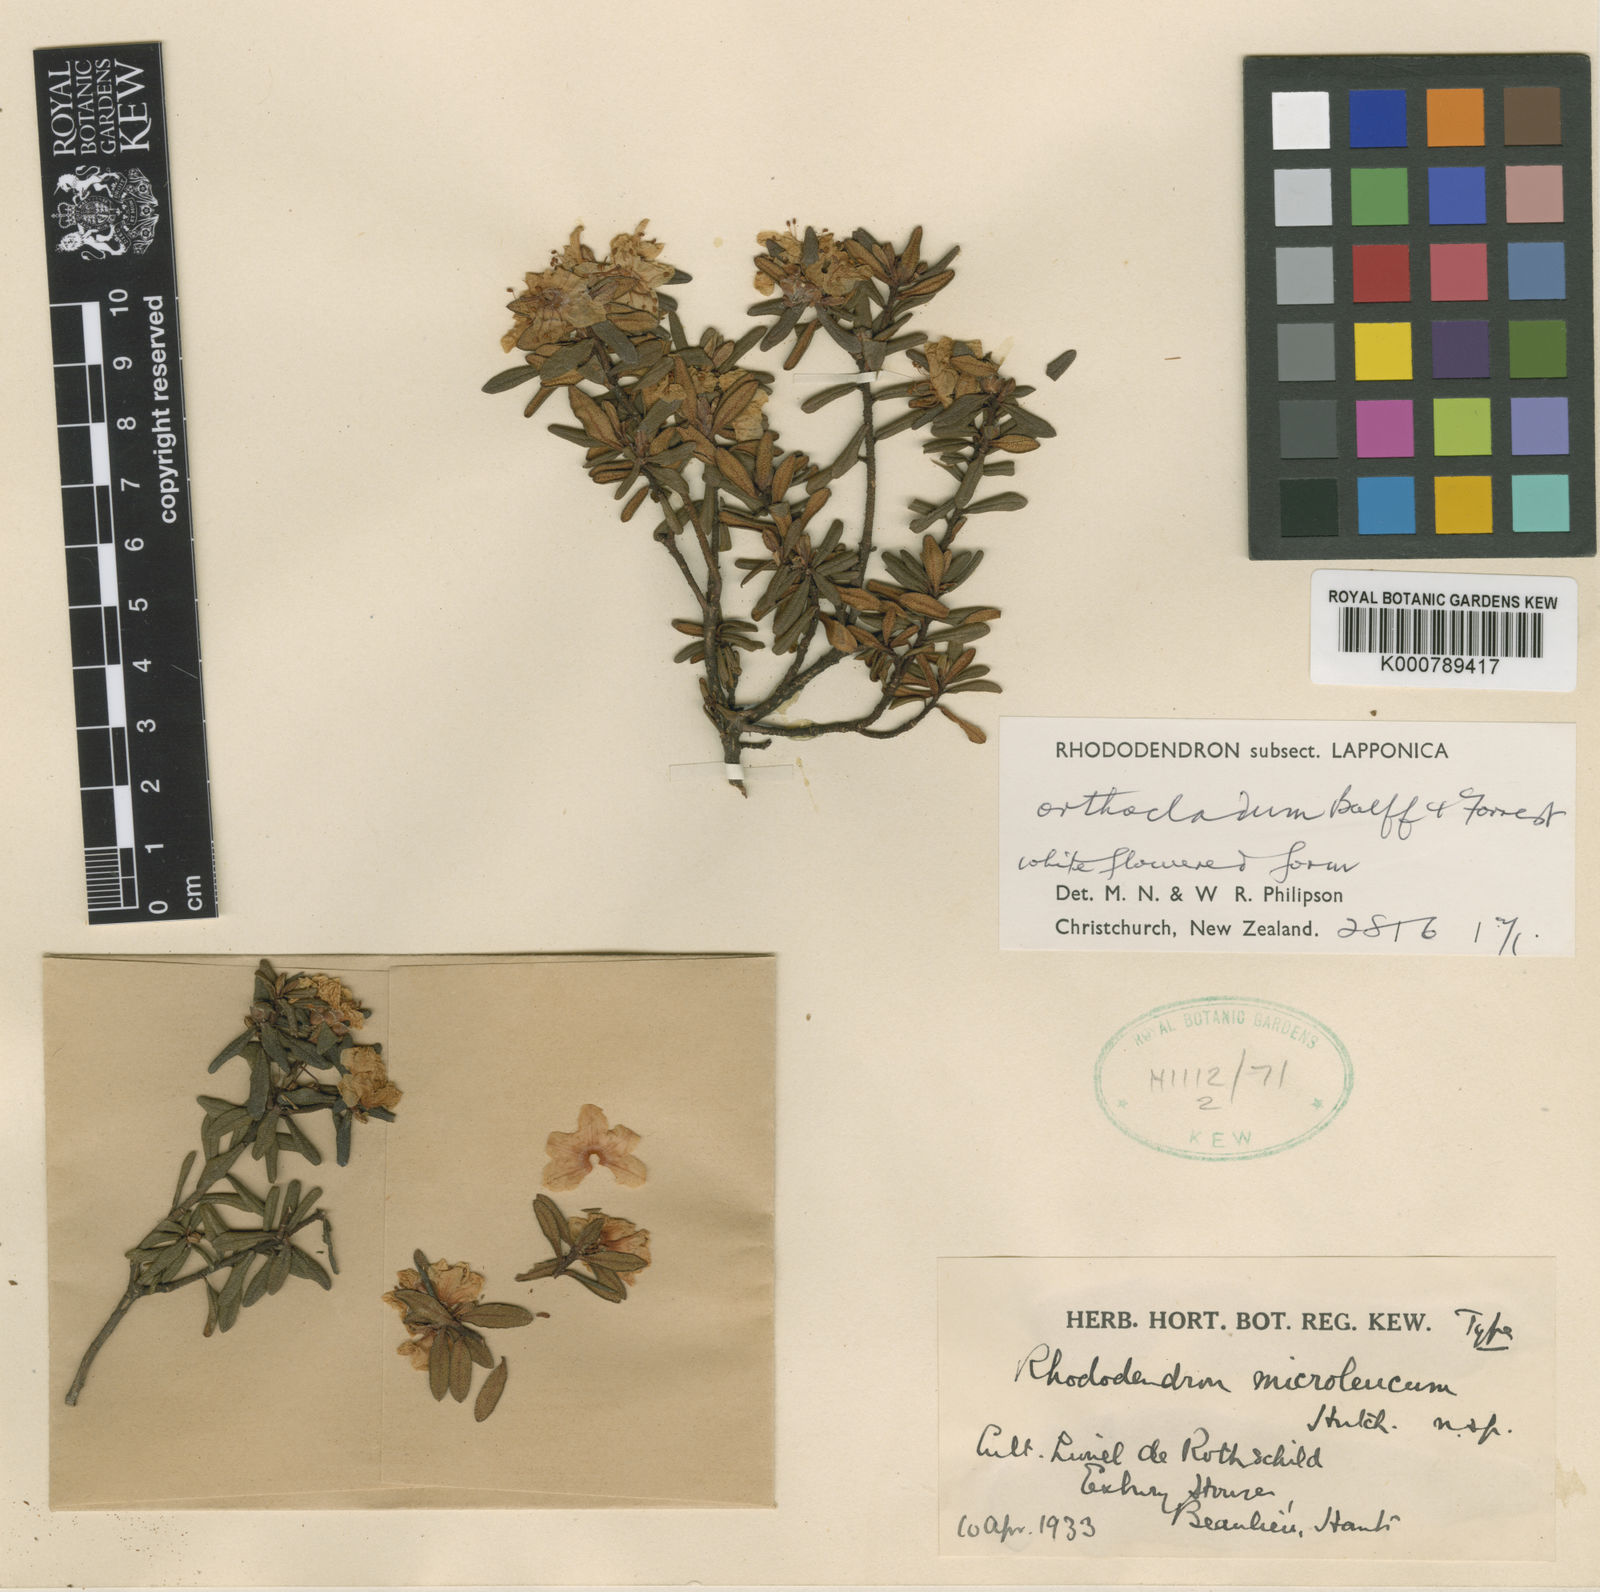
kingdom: Plantae
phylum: Tracheophyta
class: Magnoliopsida
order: Ericales
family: Ericaceae
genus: Rhododendron
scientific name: Rhododendron orthocladum
